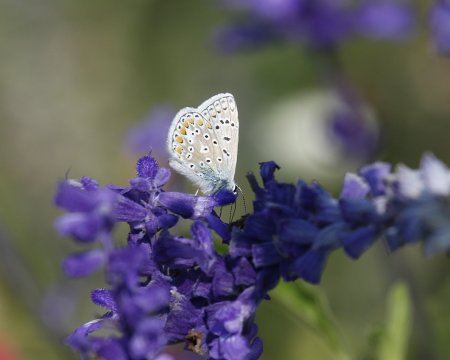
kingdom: Animalia
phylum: Arthropoda
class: Insecta
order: Lepidoptera
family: Lycaenidae
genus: Polyommatus
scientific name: Polyommatus icarus
